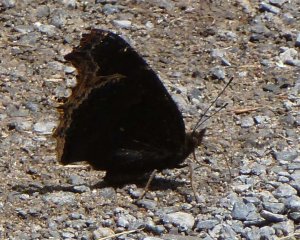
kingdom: Animalia
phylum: Arthropoda
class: Insecta
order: Lepidoptera
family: Nymphalidae
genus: Nymphalis
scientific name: Nymphalis antiopa
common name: Mourning Cloak
